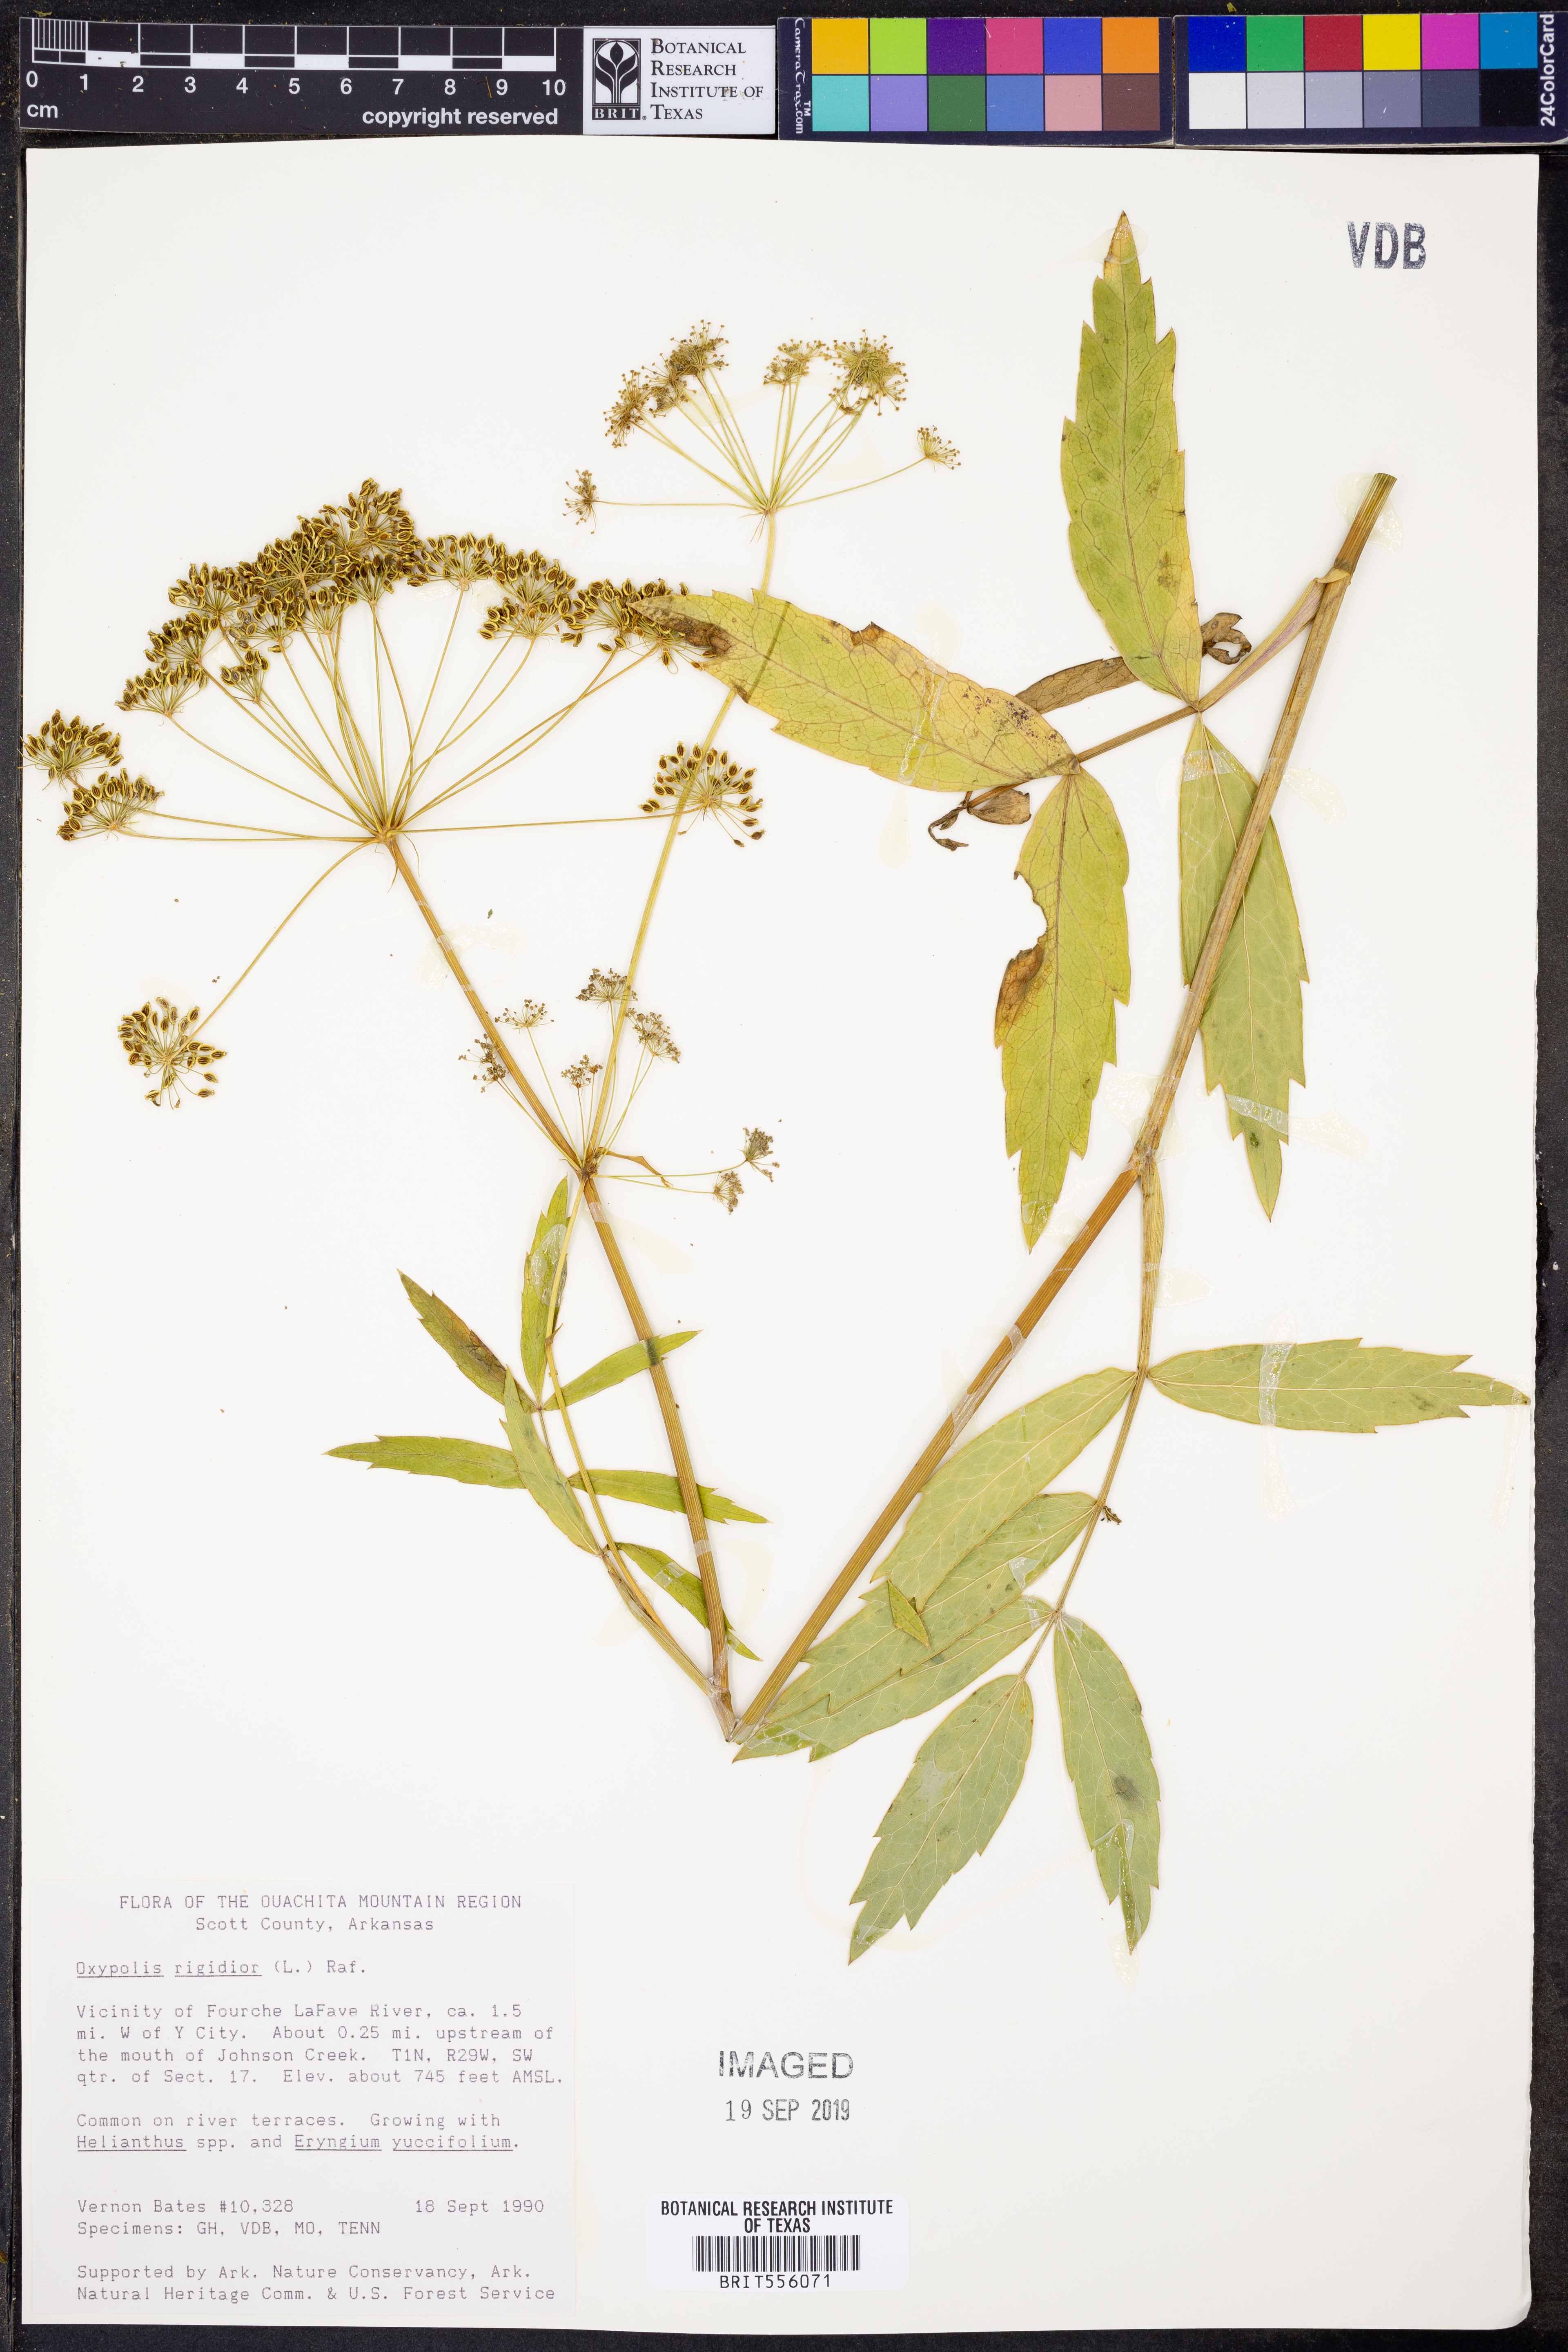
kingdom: Plantae
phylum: Tracheophyta
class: Magnoliopsida
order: Apiales
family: Apiaceae
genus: Oxypolis
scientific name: Oxypolis rigidior
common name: Cowbane
